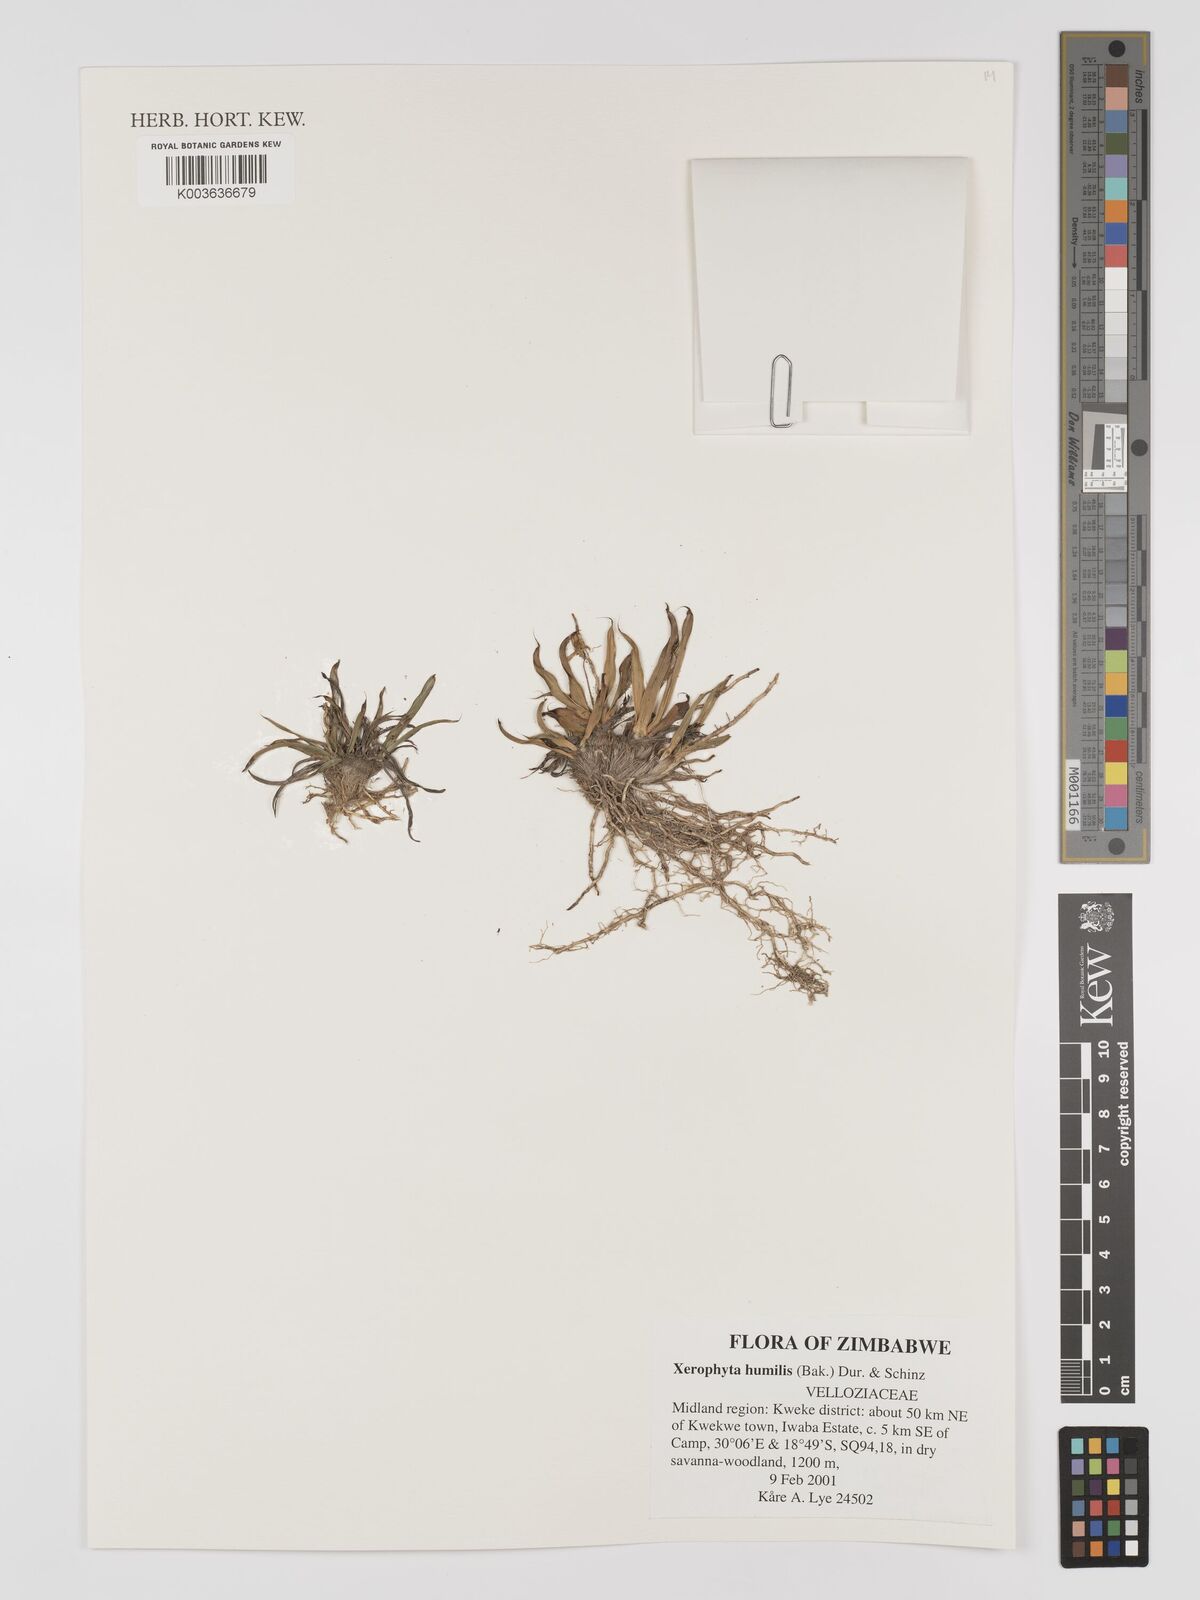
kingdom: Plantae
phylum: Tracheophyta
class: Liliopsida
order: Pandanales
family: Velloziaceae
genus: Xerophyta
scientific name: Xerophyta humilis
